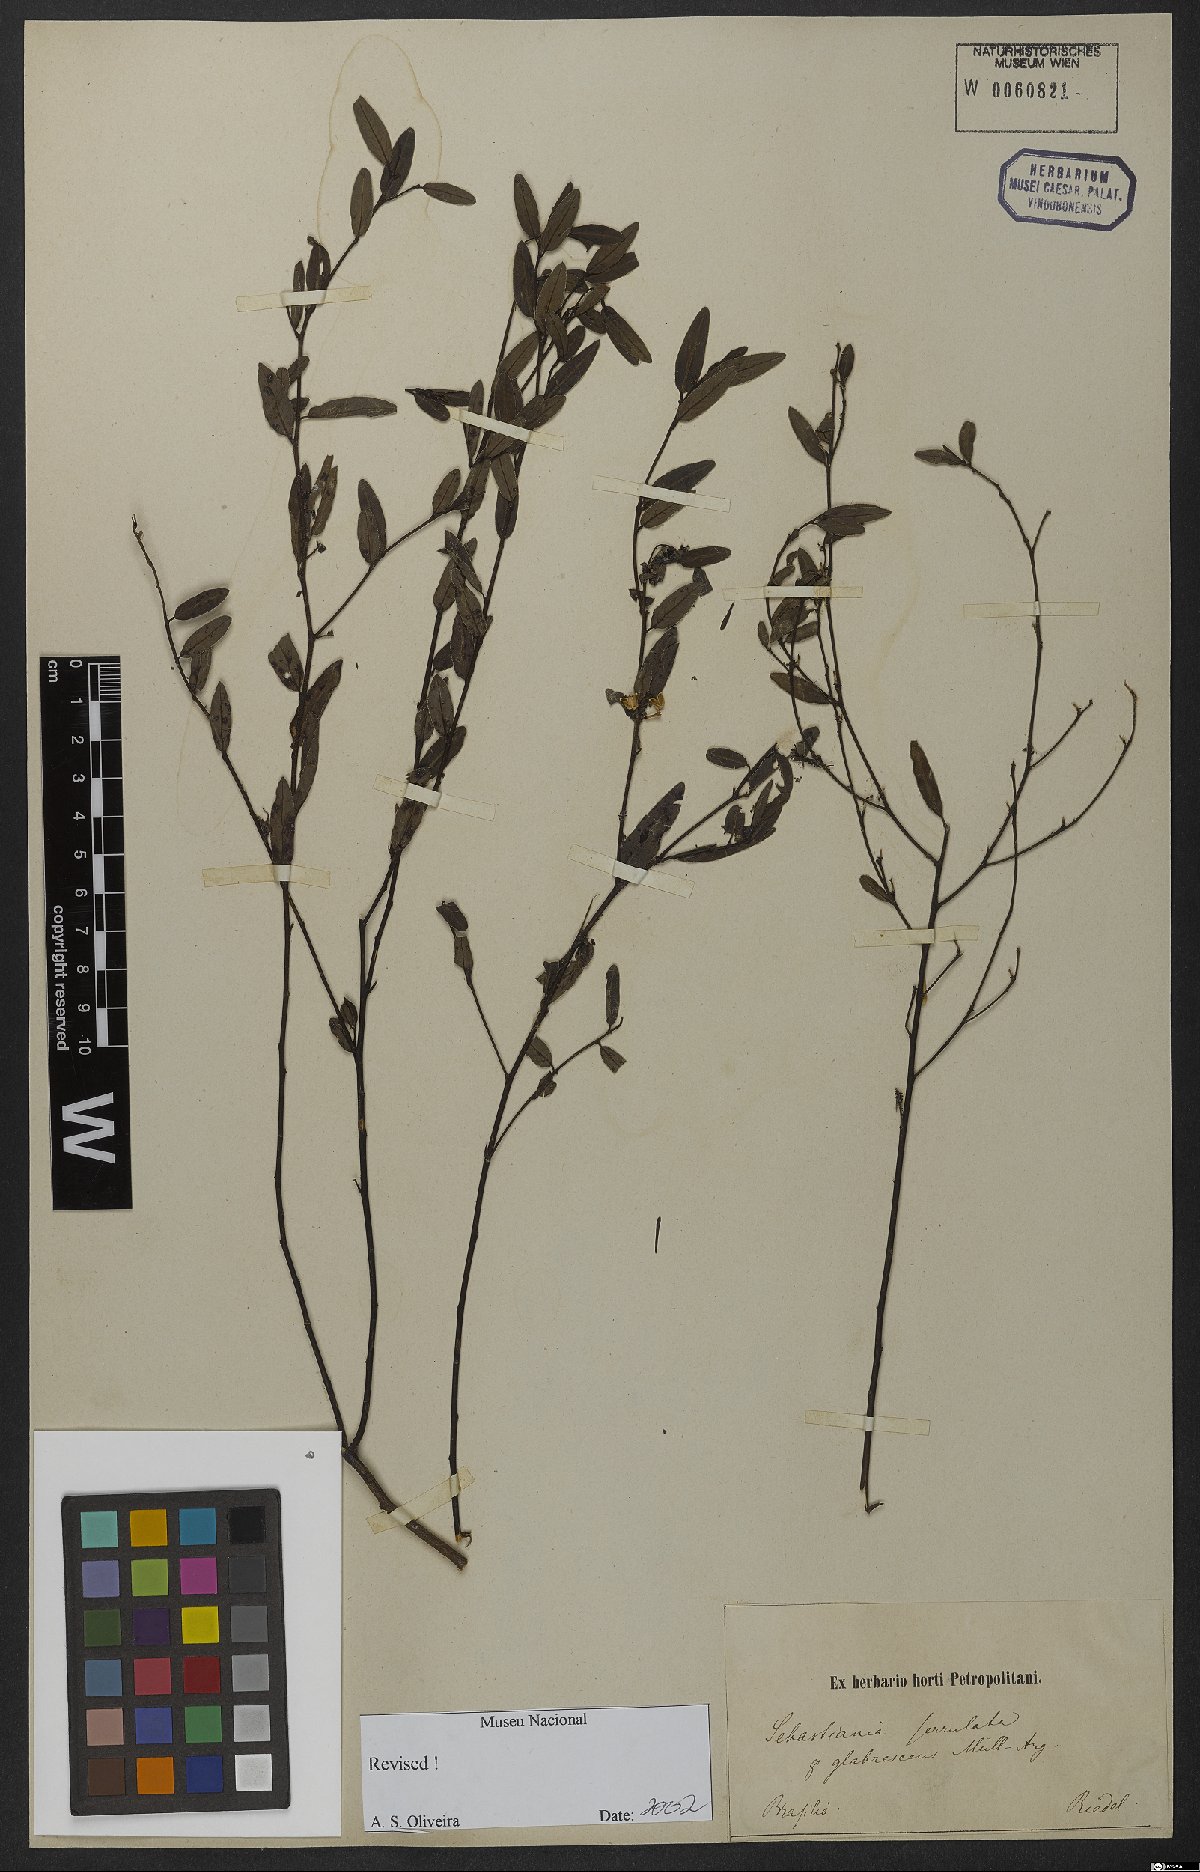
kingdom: Plantae
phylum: Tracheophyta
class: Magnoliopsida
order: Malpighiales
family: Euphorbiaceae
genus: Microstachys
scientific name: Microstachys serrulata
